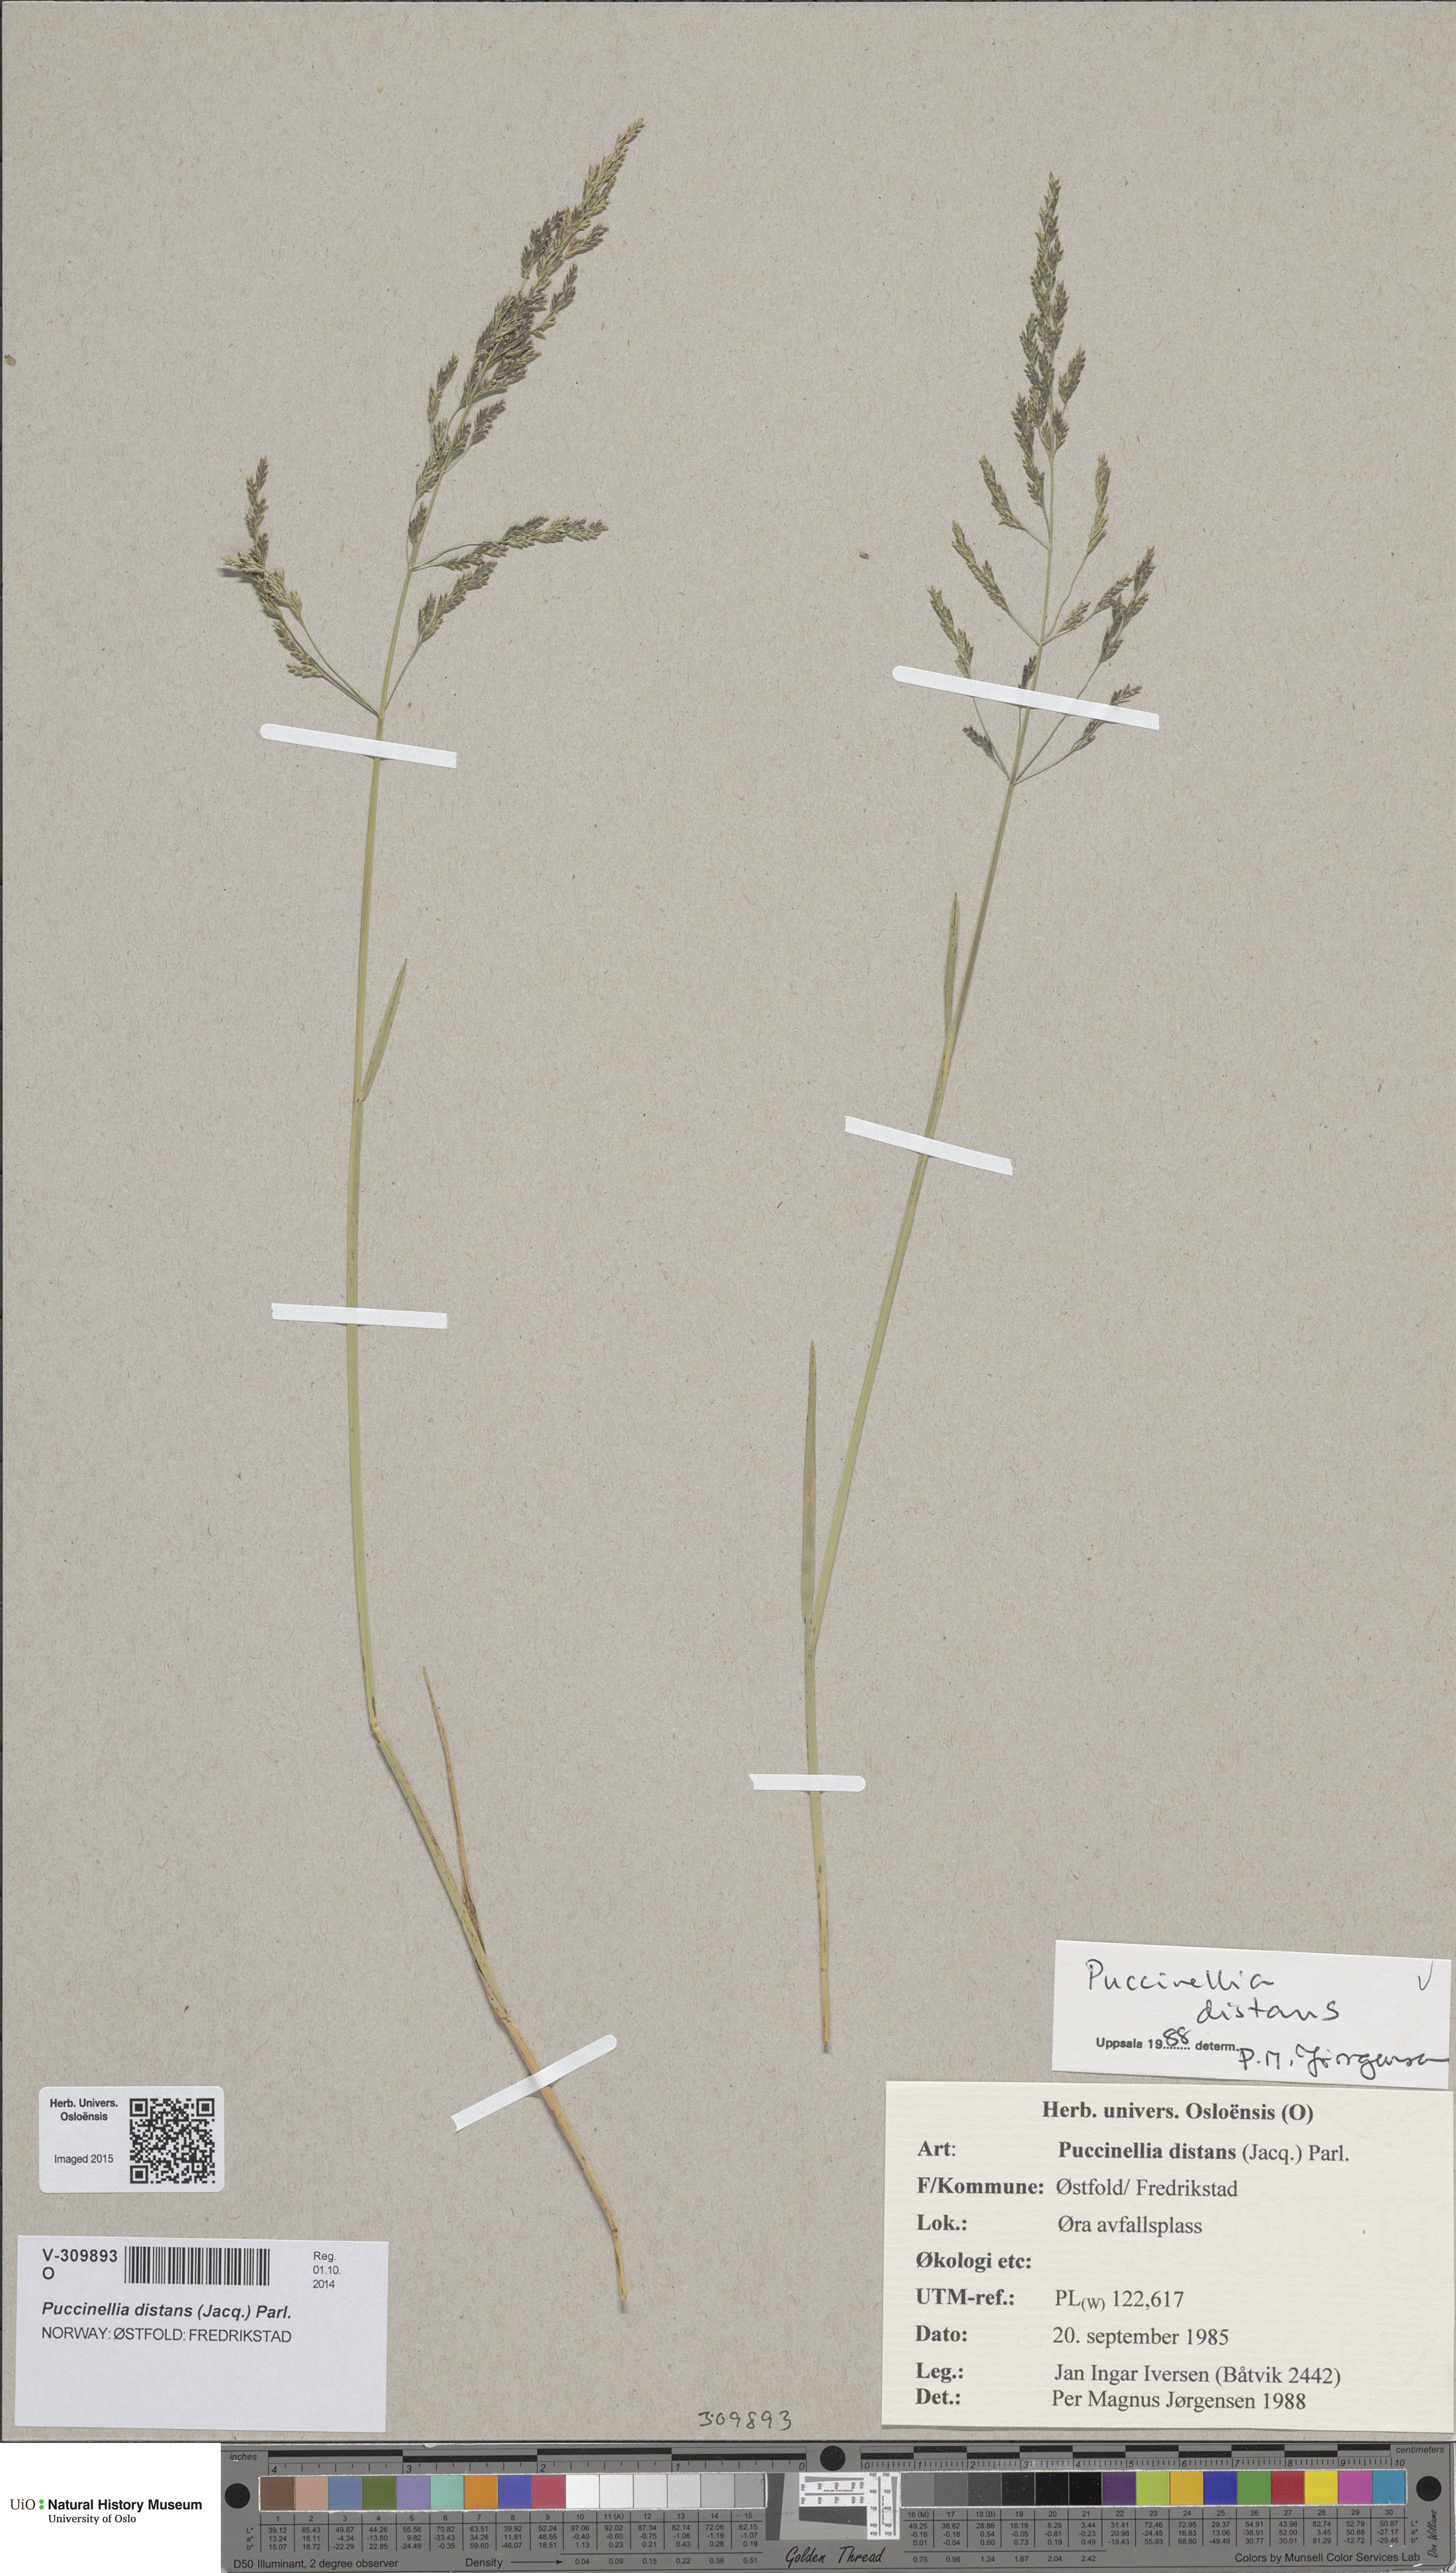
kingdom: Plantae
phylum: Tracheophyta
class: Liliopsida
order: Poales
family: Poaceae
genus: Puccinellia
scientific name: Puccinellia distans
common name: Weeping alkaligrass
